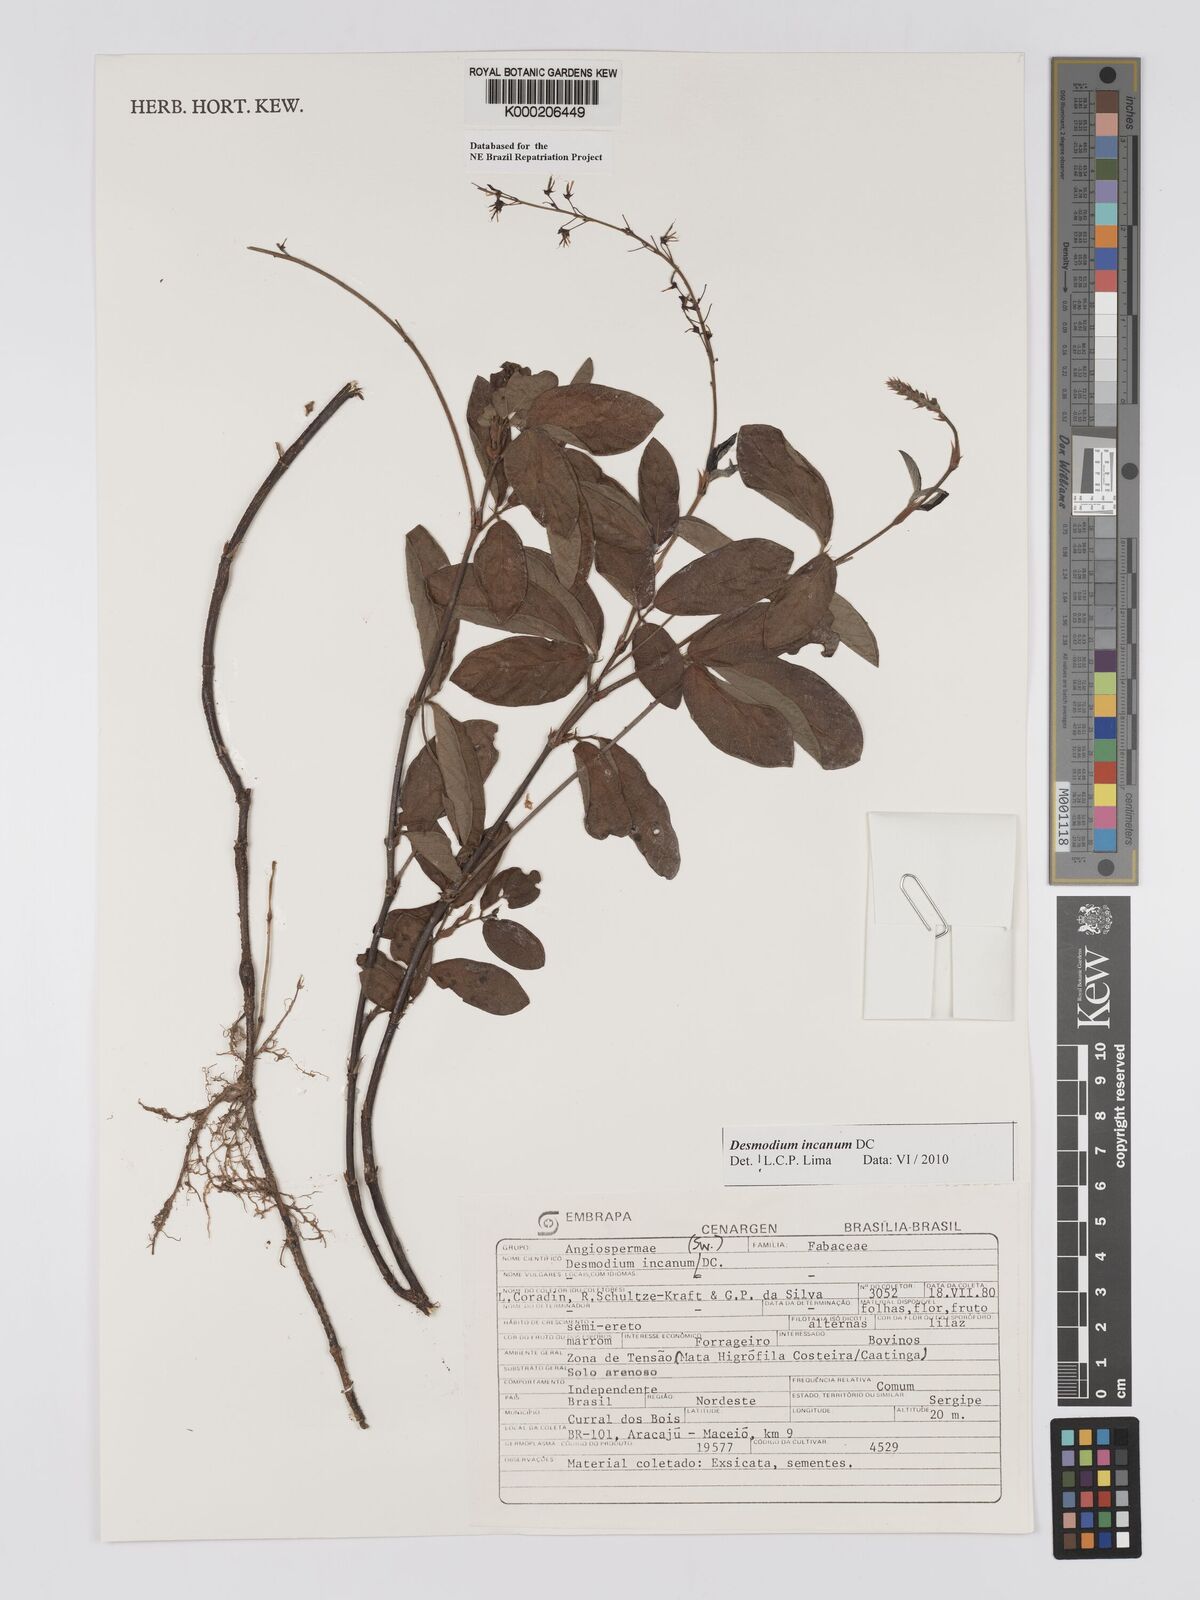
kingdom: Plantae
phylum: Tracheophyta
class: Magnoliopsida
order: Fabales
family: Fabaceae
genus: Desmodium
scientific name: Desmodium incanum
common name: Tickclover
